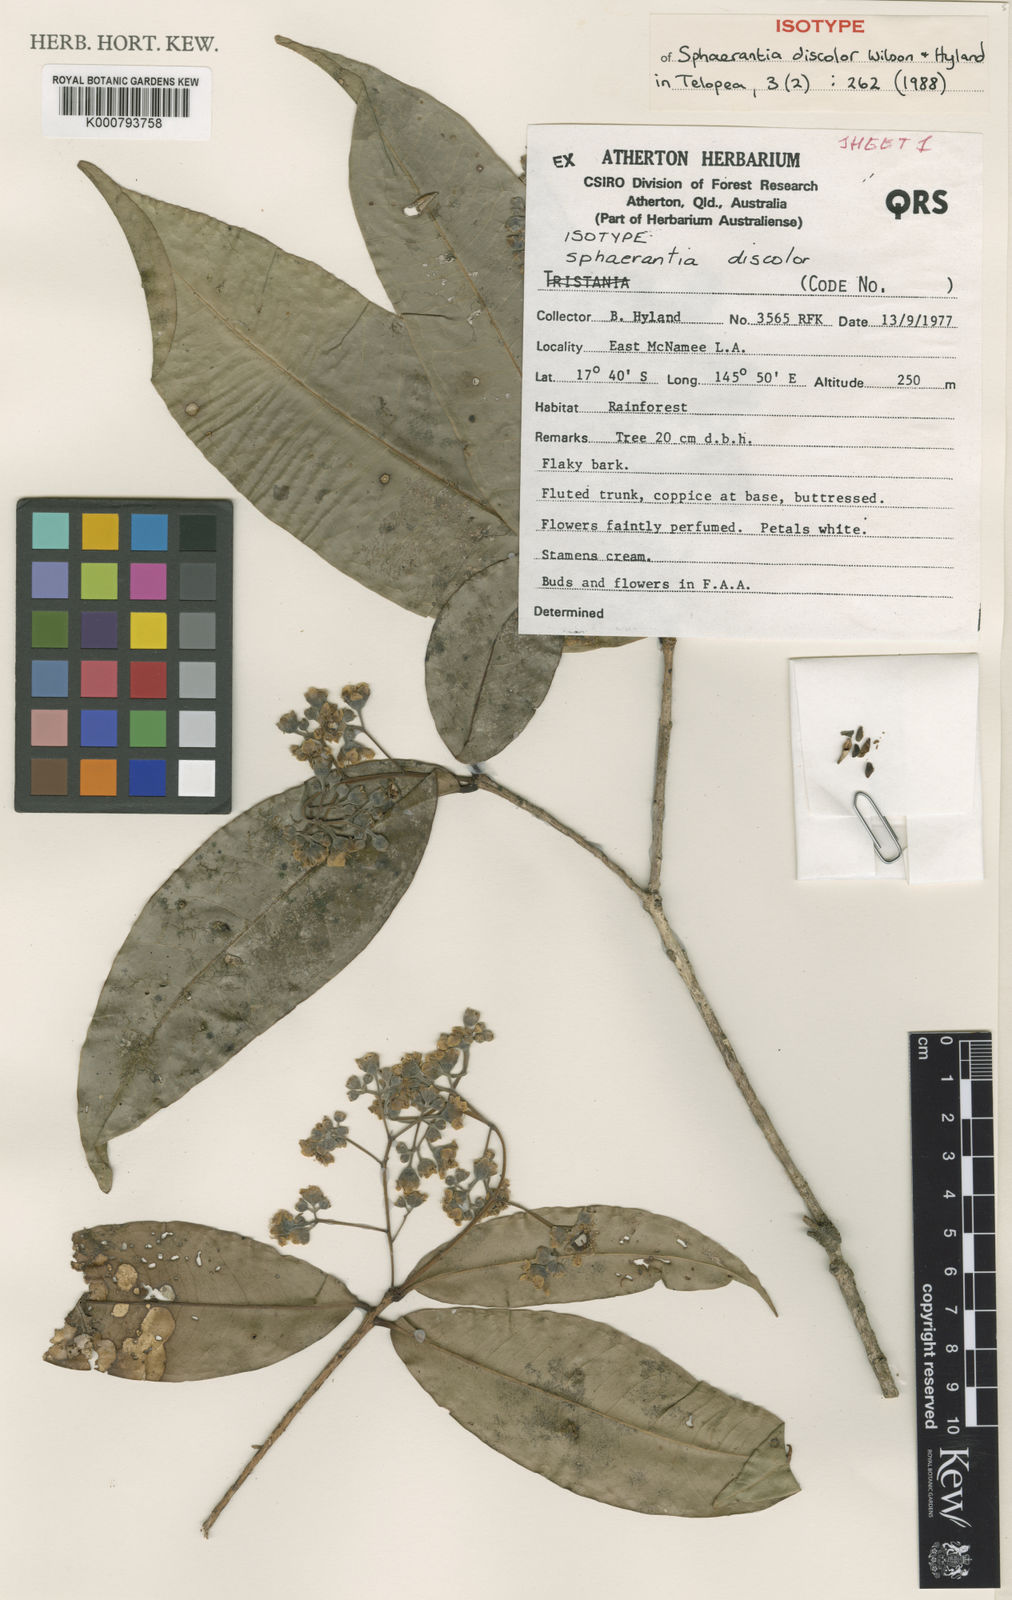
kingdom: Plantae
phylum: Tracheophyta
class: Magnoliopsida
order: Myrtales
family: Myrtaceae
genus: Sphaerantia
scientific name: Sphaerantia discolor
